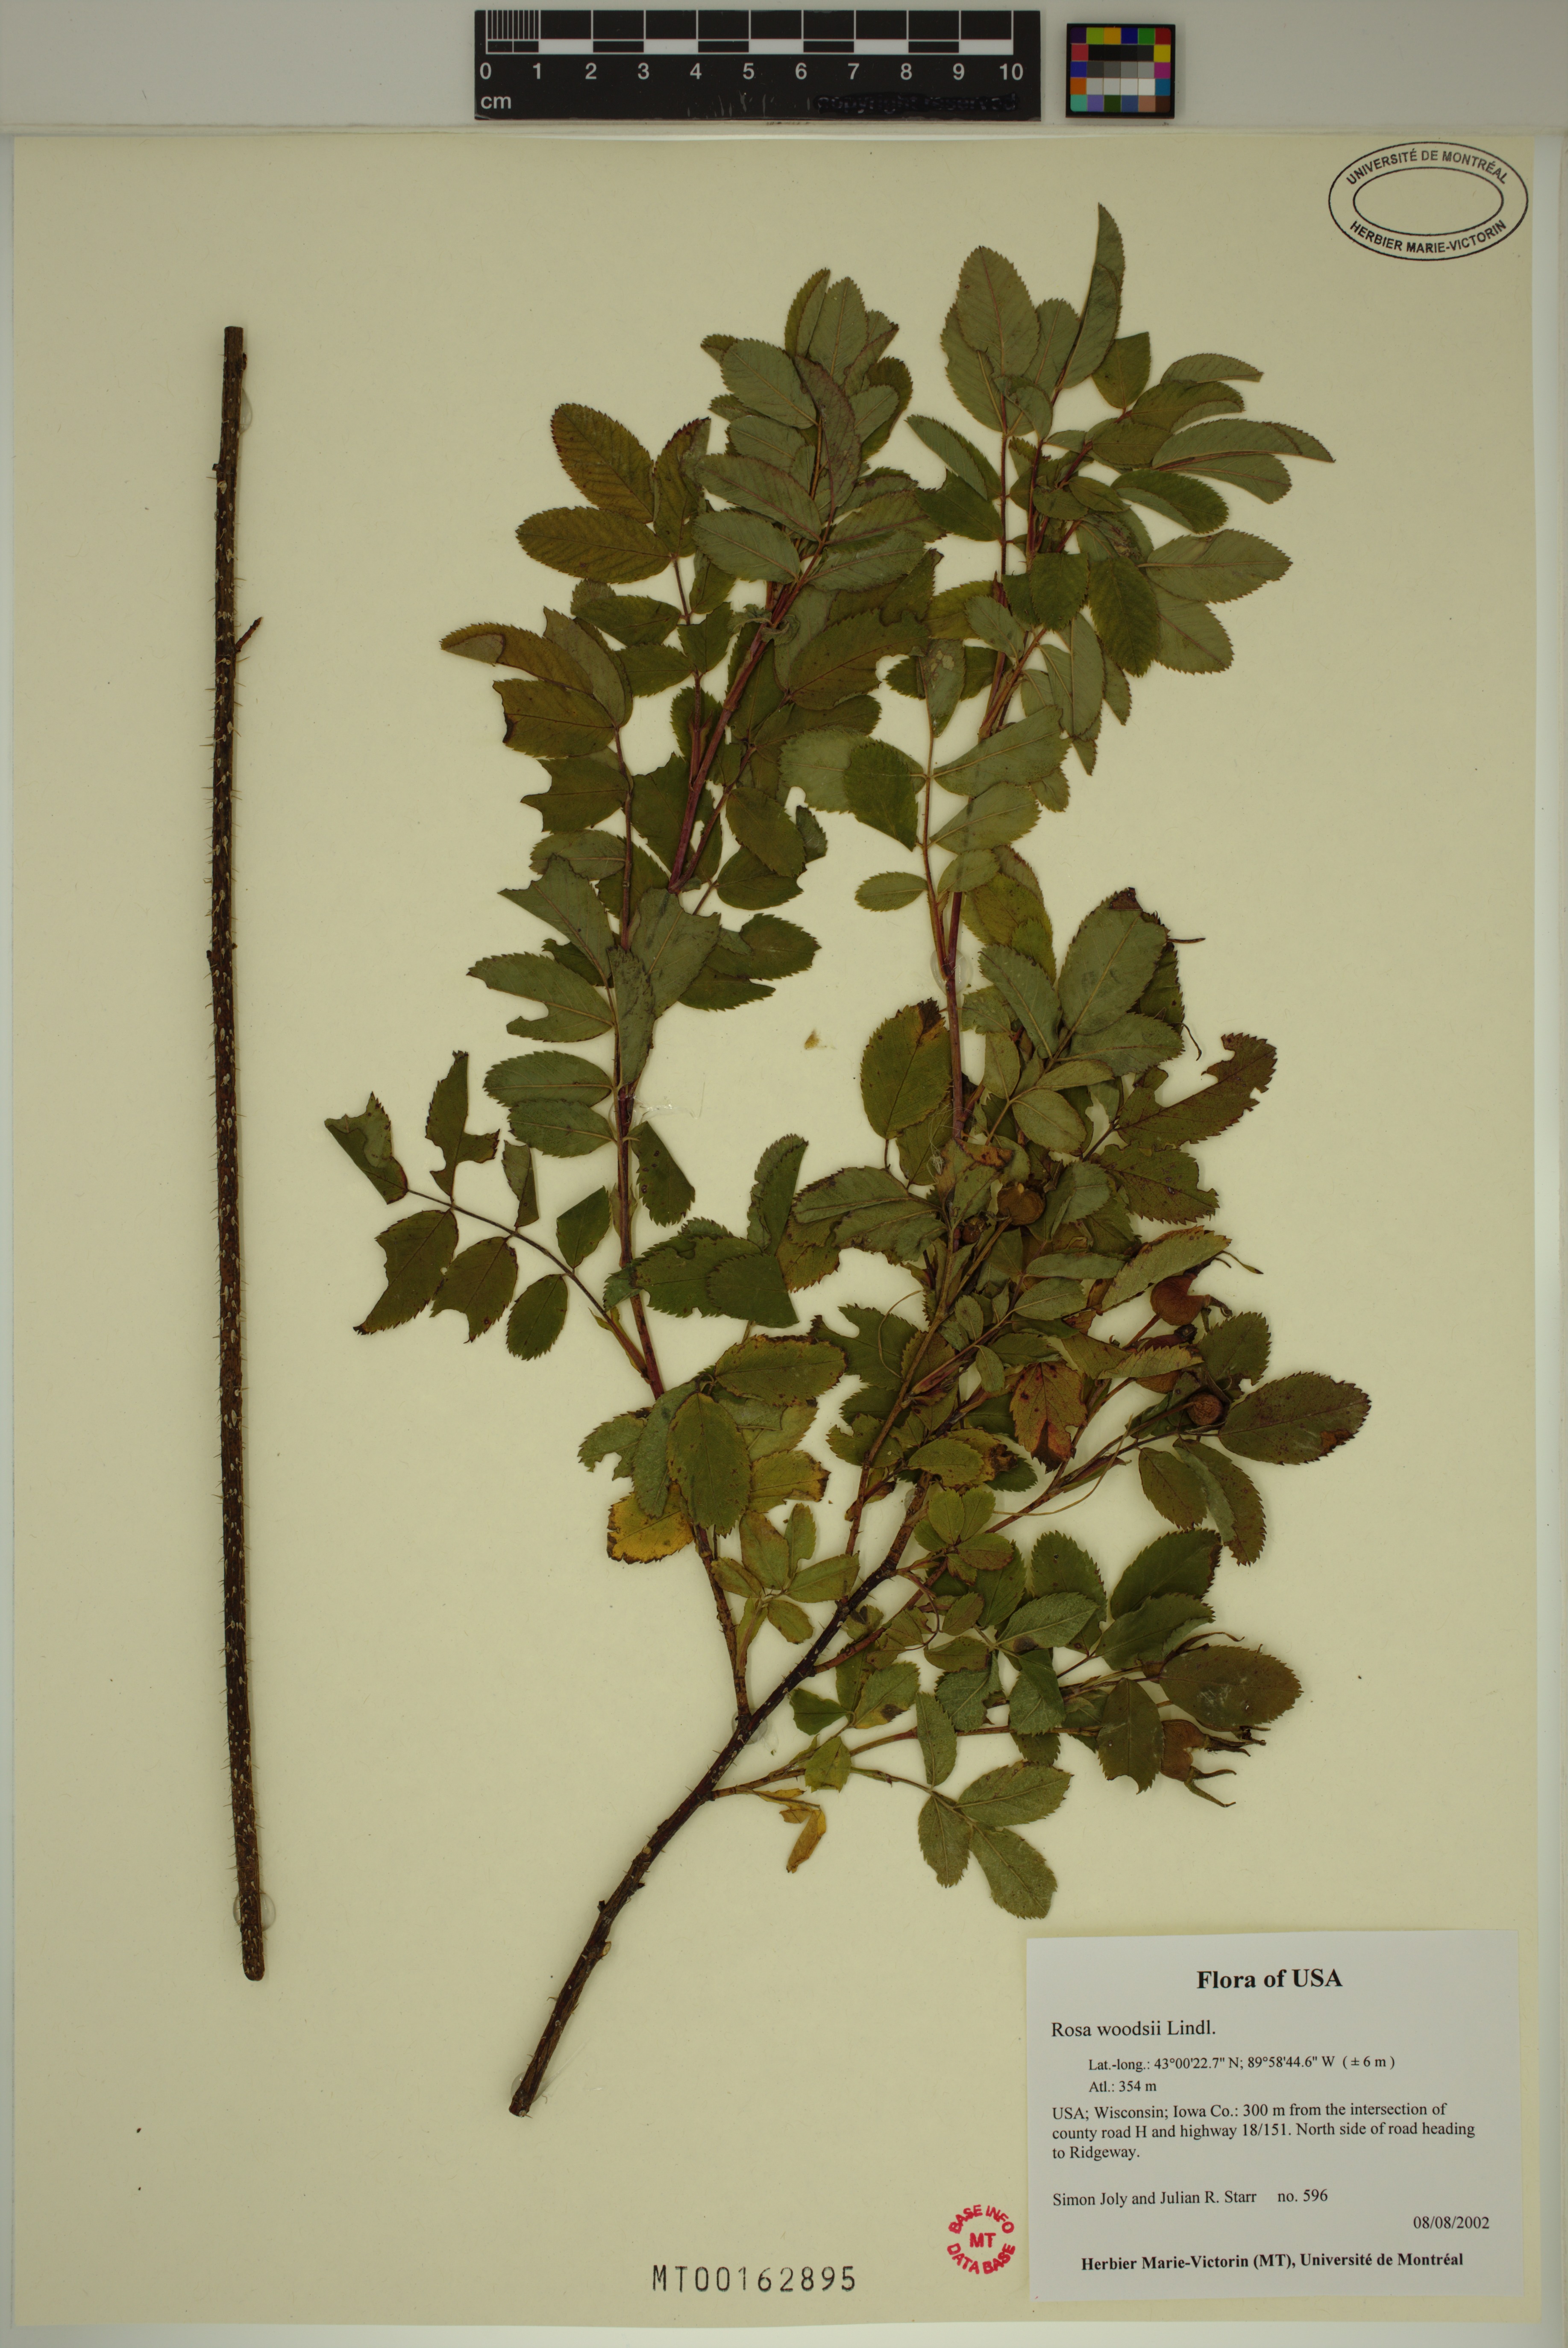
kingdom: Plantae
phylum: Tracheophyta
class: Magnoliopsida
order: Rosales
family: Rosaceae
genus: Rosa
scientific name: Rosa woodsii
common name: Woods's rose
